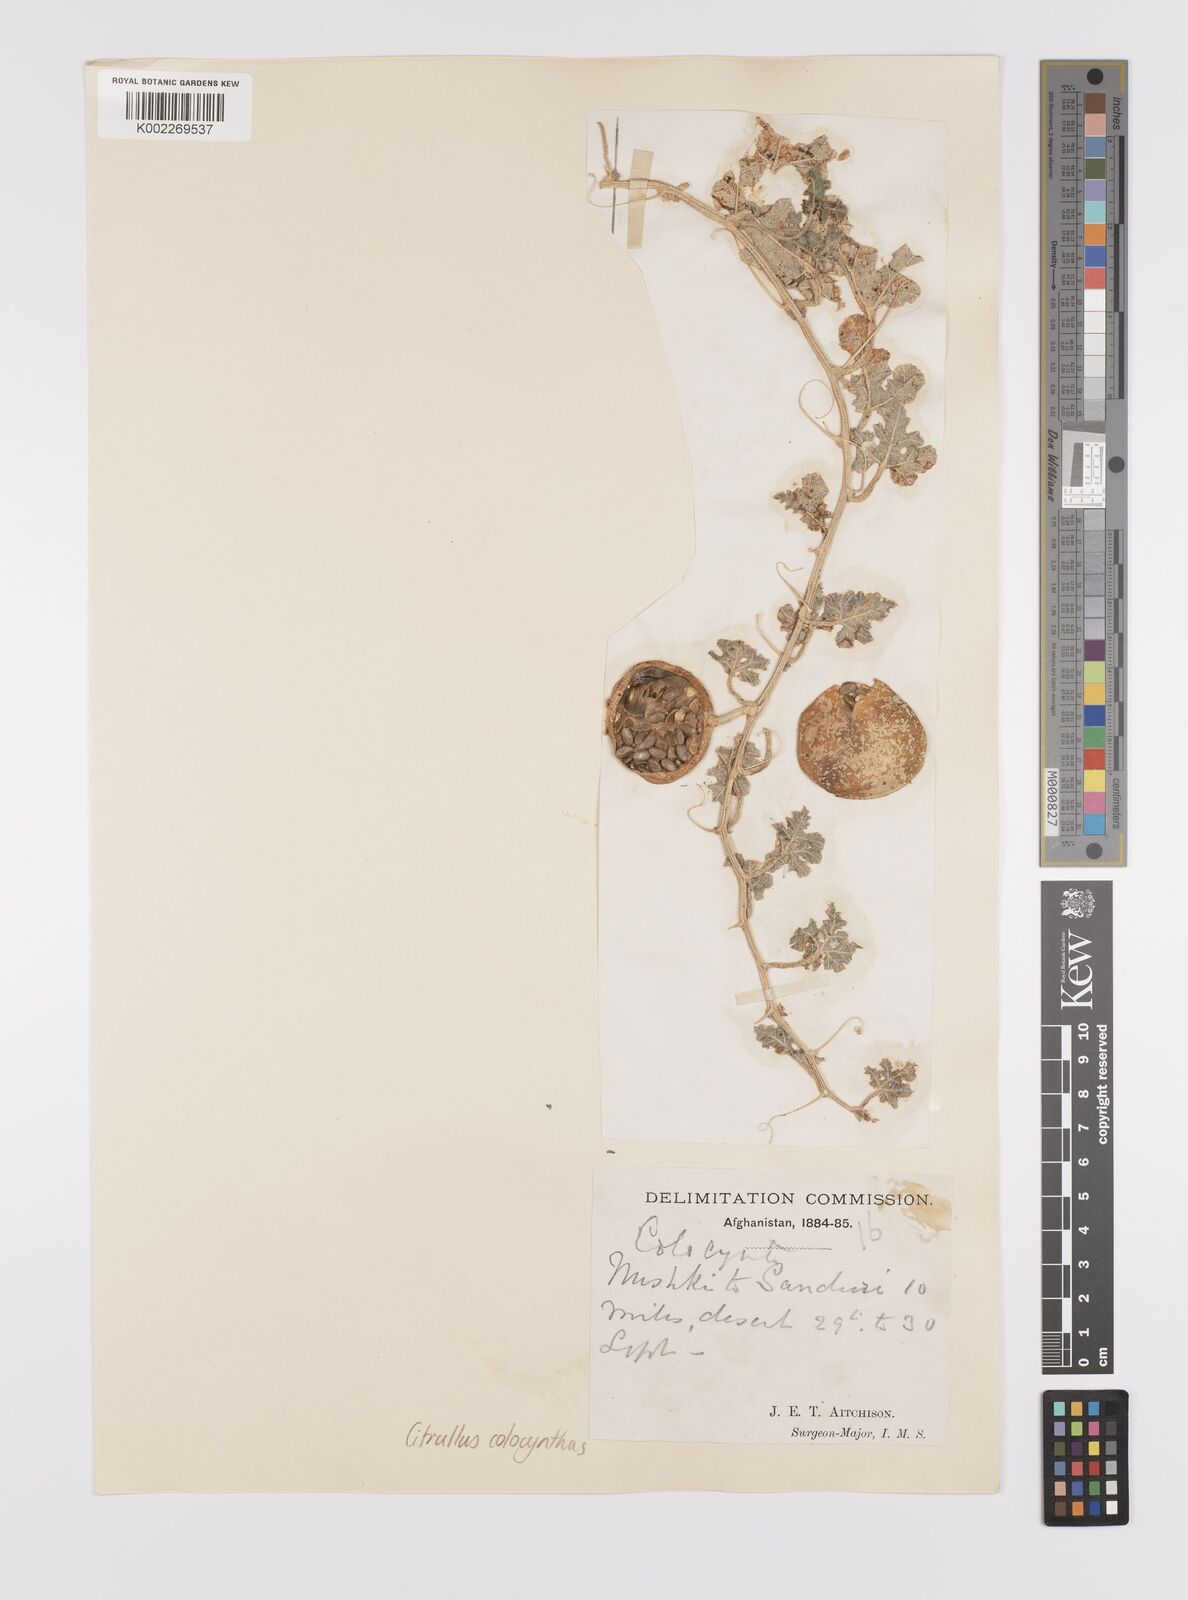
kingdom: Plantae
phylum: Tracheophyta
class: Magnoliopsida
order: Cucurbitales
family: Cucurbitaceae
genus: Citrullus
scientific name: Citrullus colocynthis
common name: Colocynth
